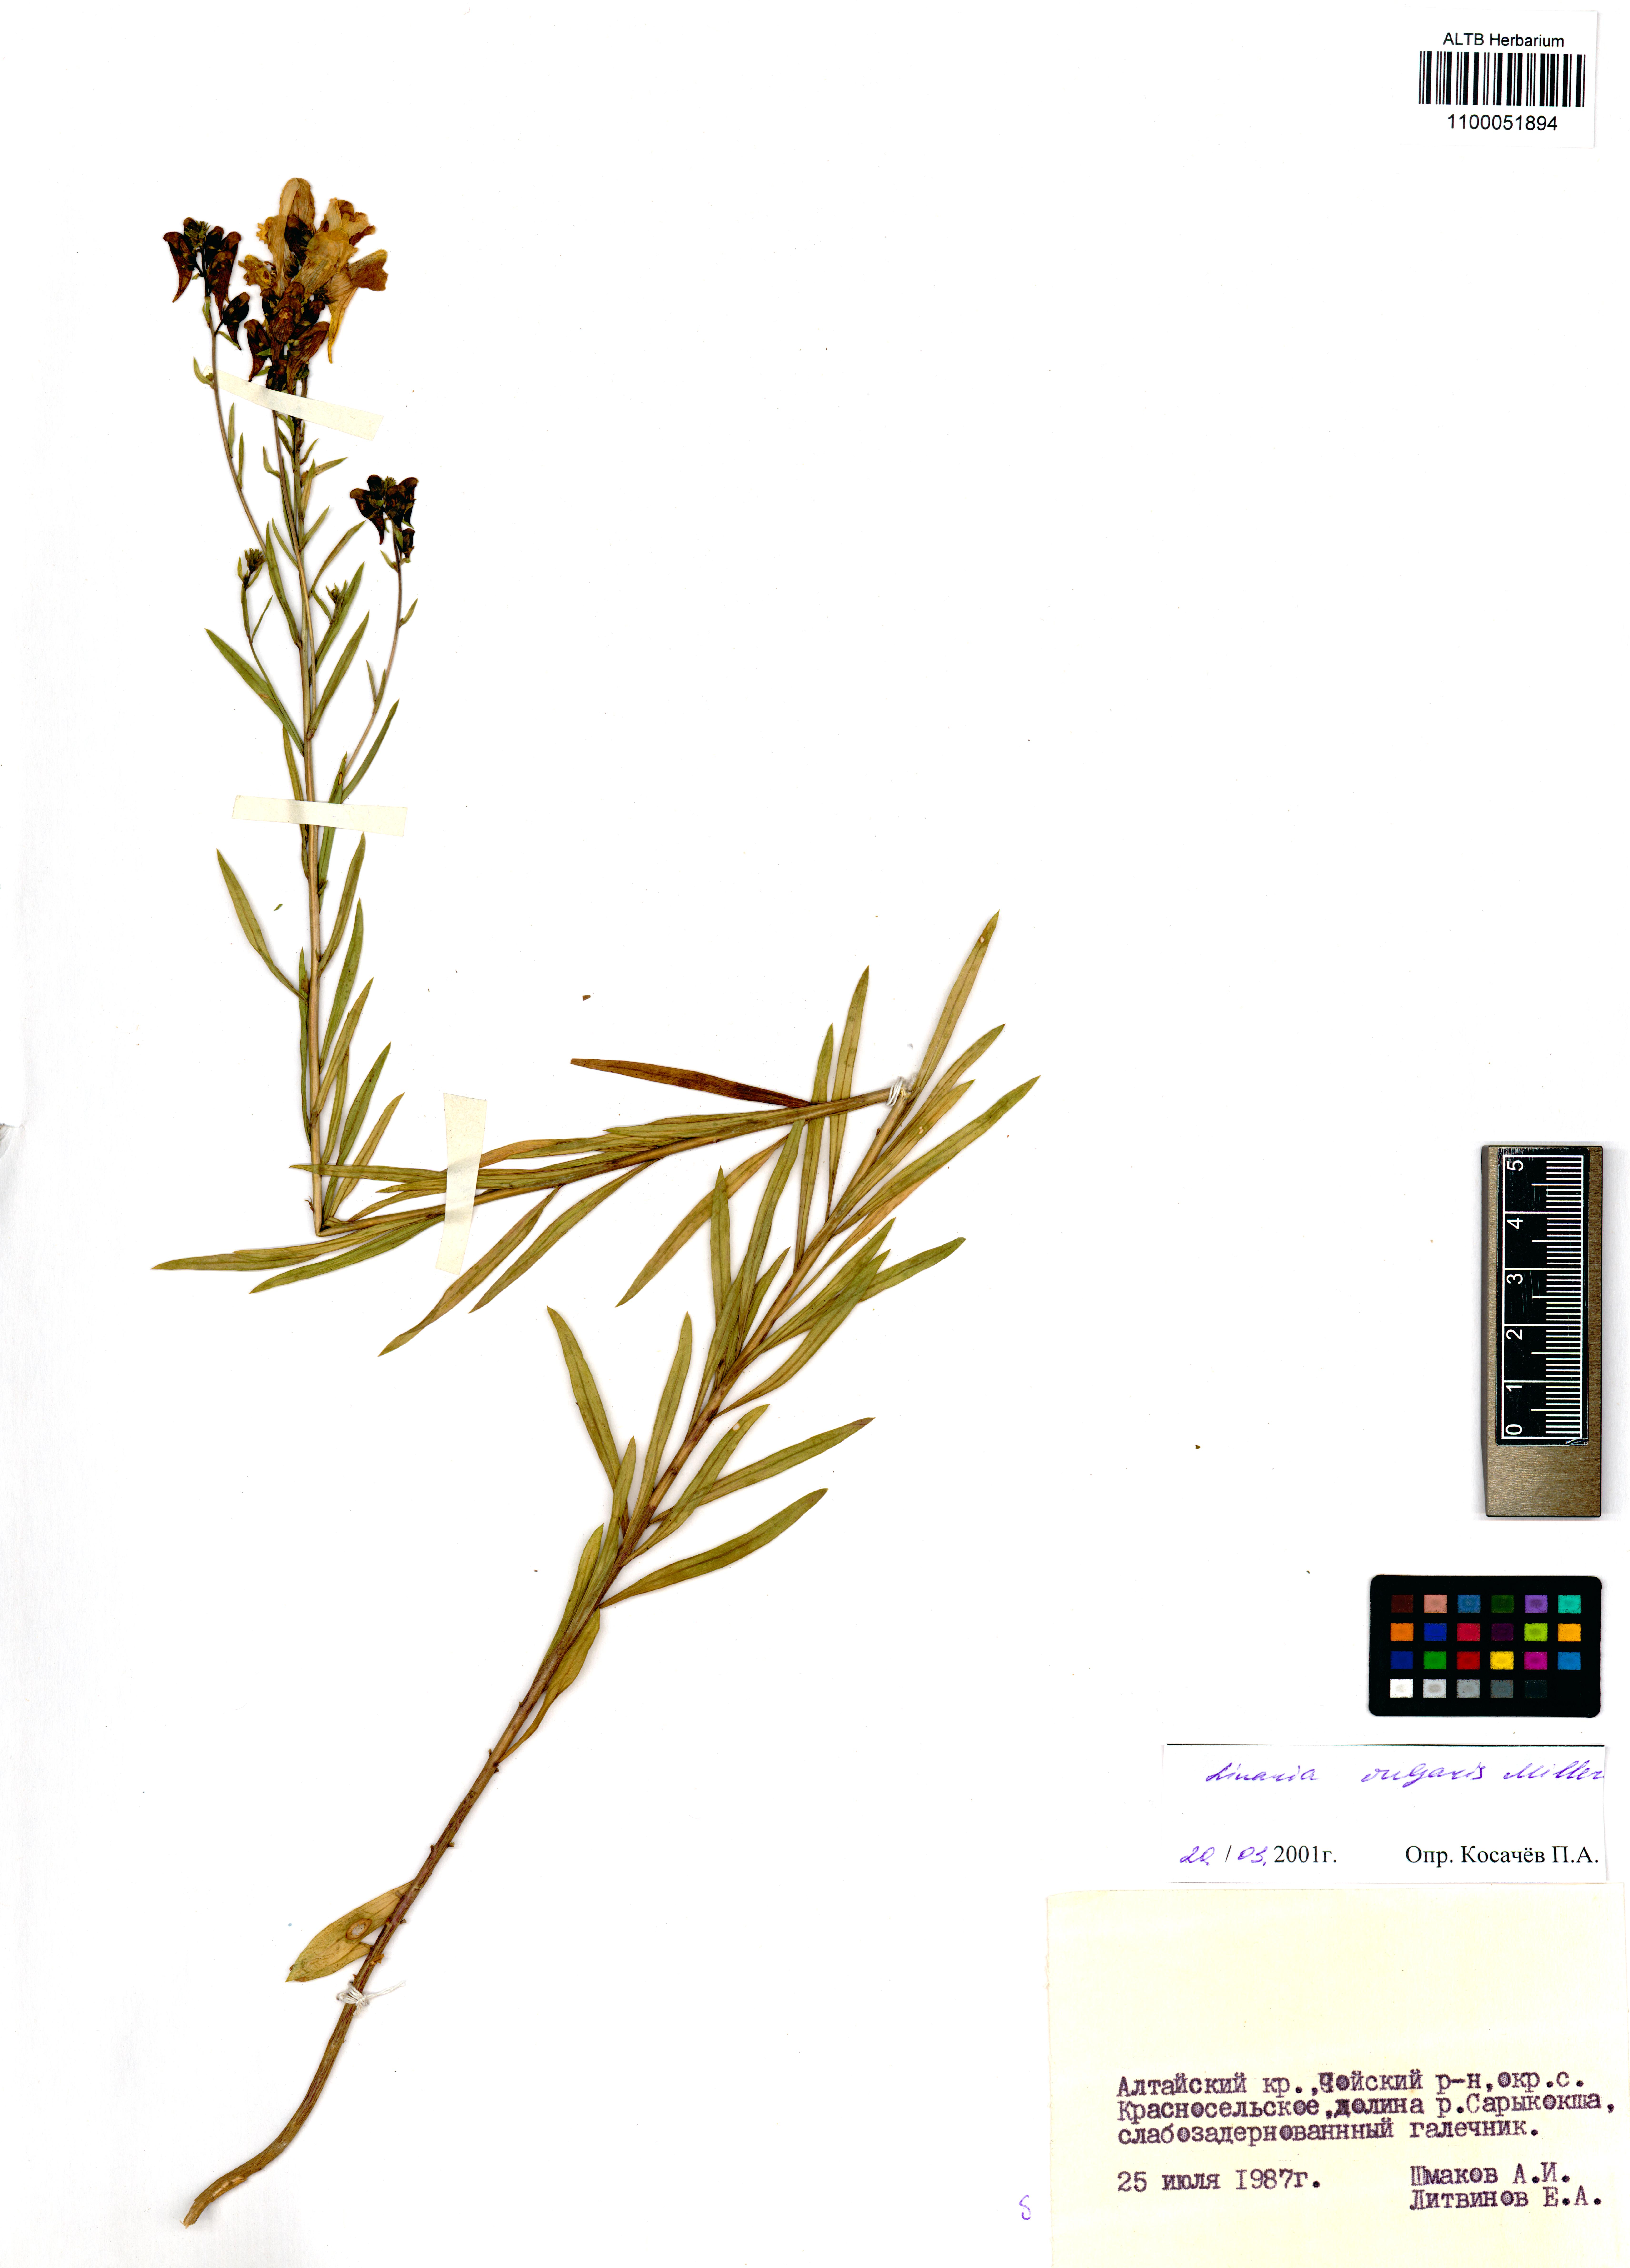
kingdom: Plantae
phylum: Tracheophyta
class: Magnoliopsida
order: Lamiales
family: Plantaginaceae
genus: Linaria
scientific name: Linaria vulgaris
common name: Butter and eggs
